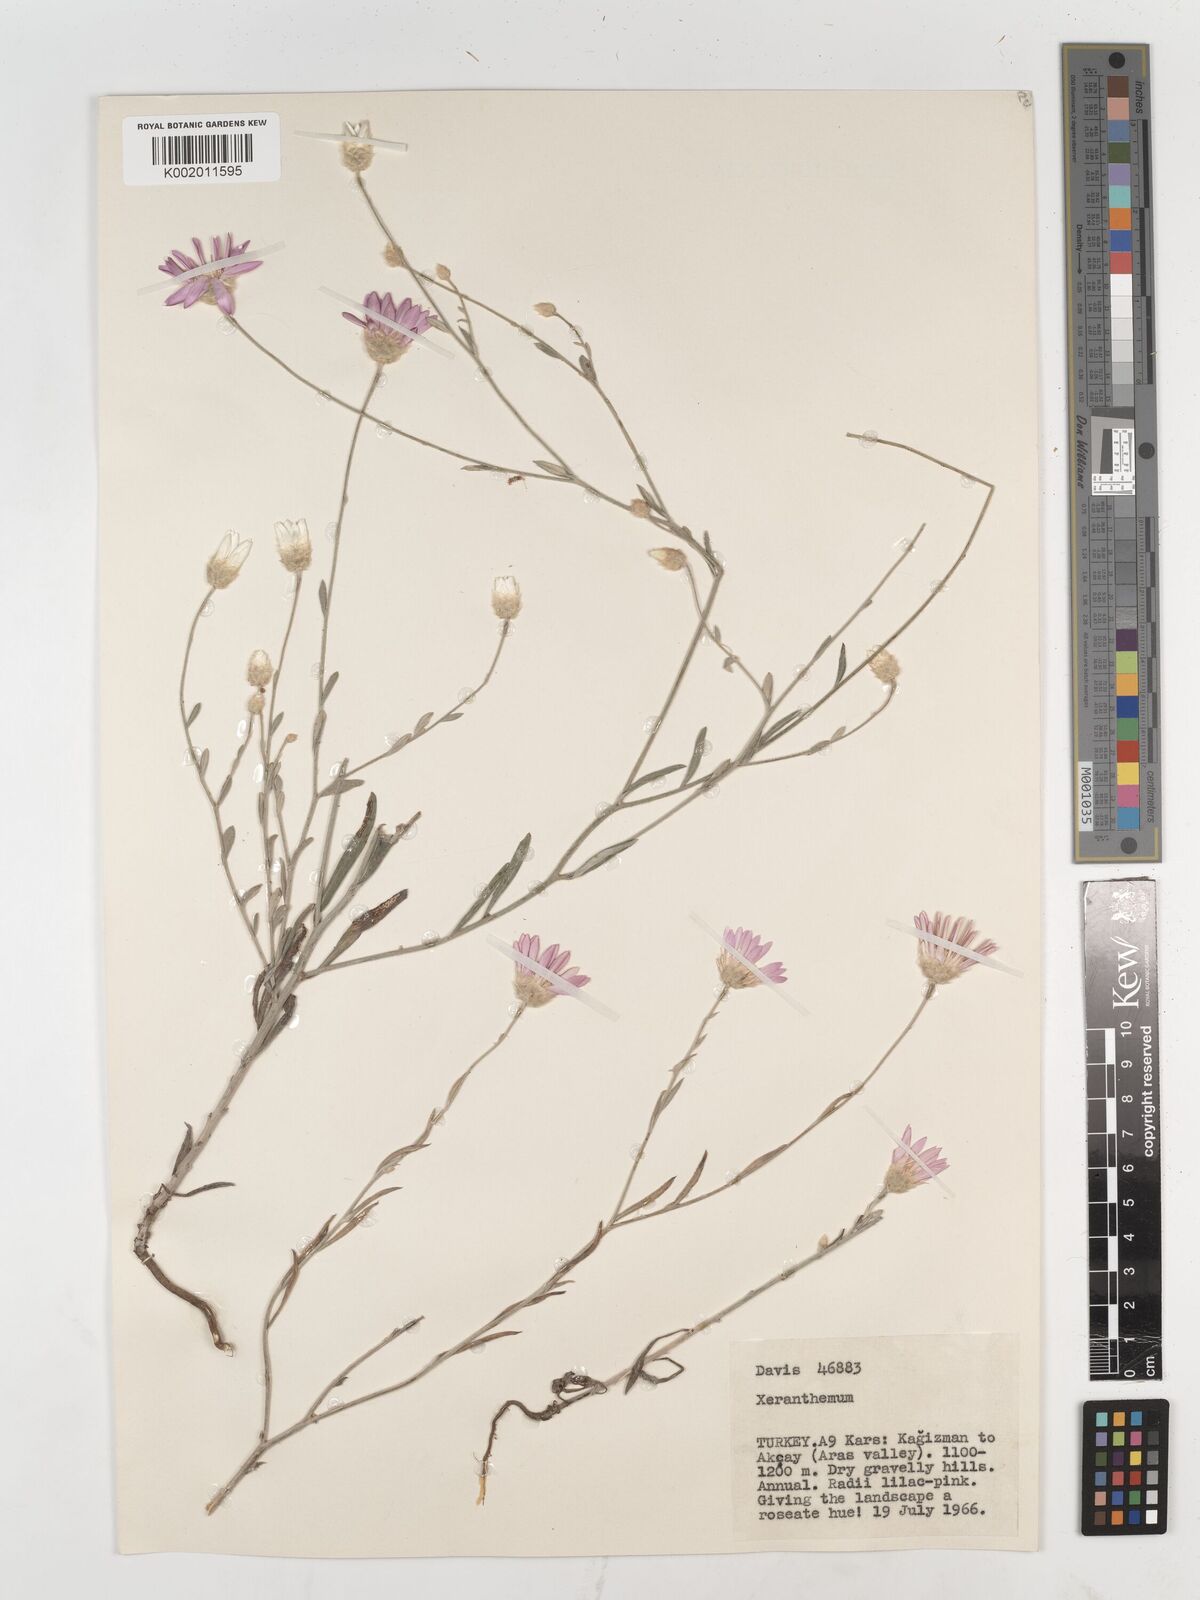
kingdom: Plantae
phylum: Tracheophyta
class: Magnoliopsida
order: Asterales
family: Asteraceae
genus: Xeranthemum
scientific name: Xeranthemum annuum
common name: Immortelle
